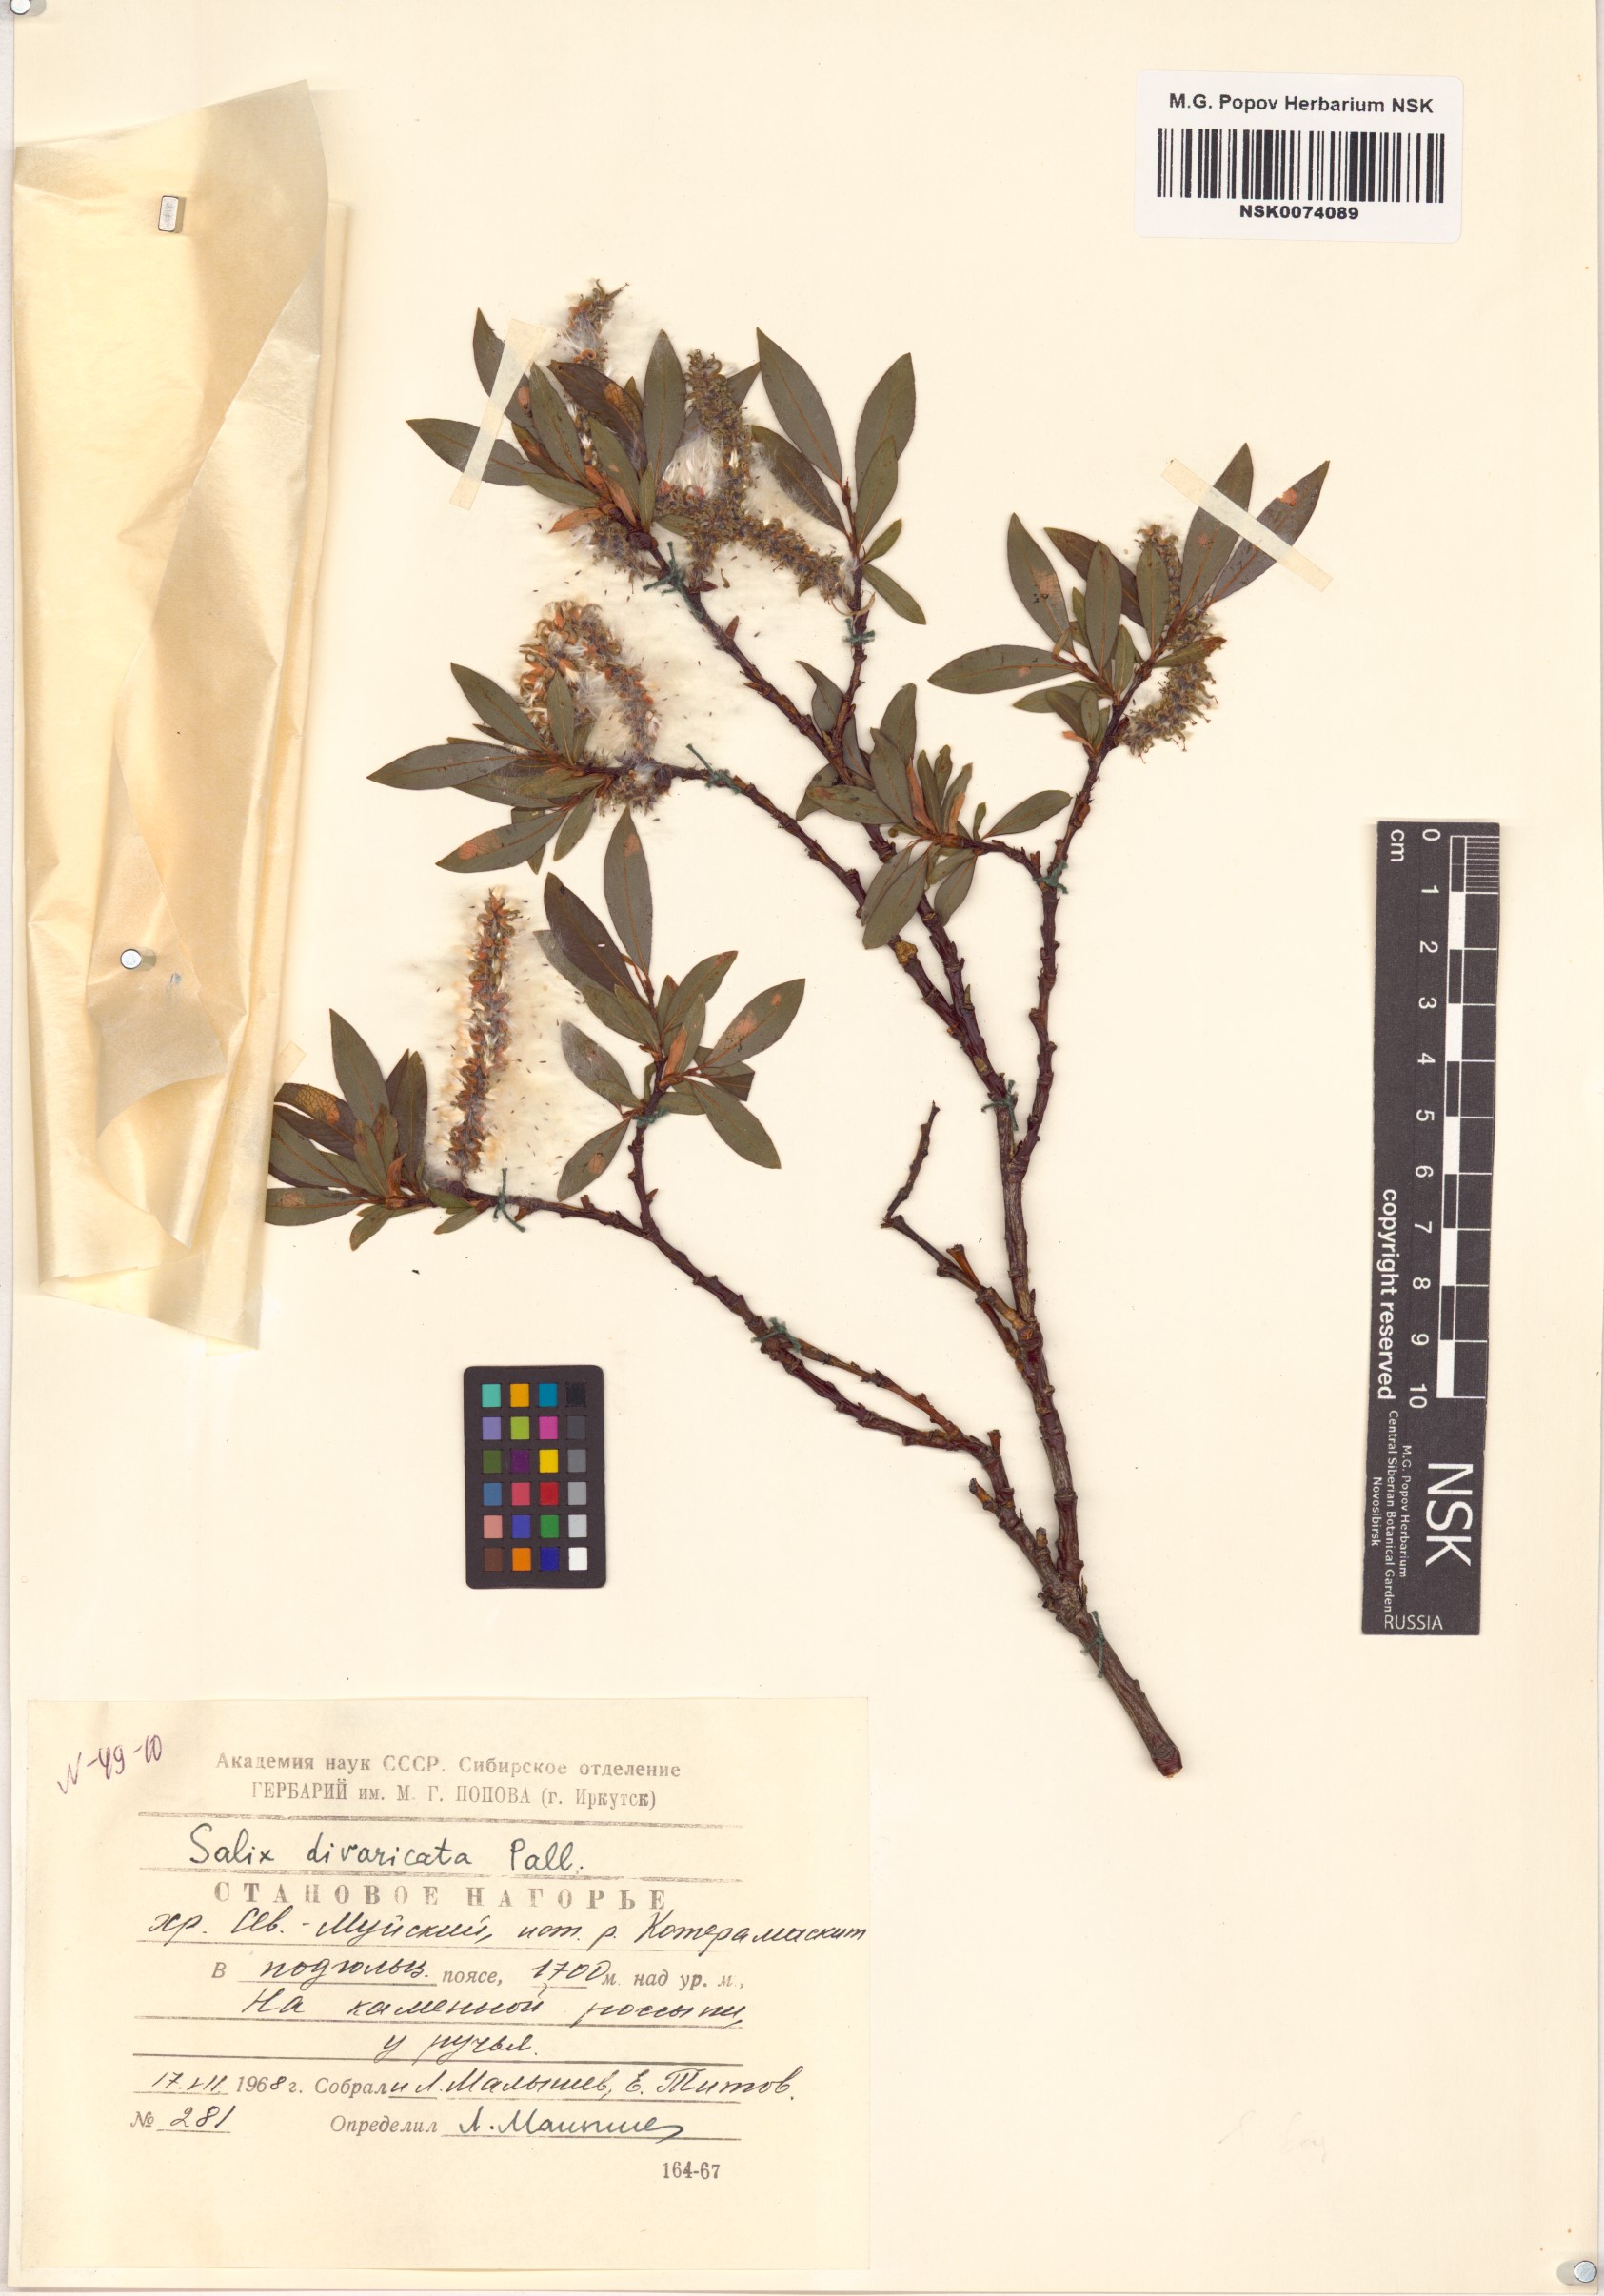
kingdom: Plantae
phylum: Tracheophyta
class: Magnoliopsida
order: Malpighiales
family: Salicaceae
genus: Salix
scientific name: Salix divaricata
